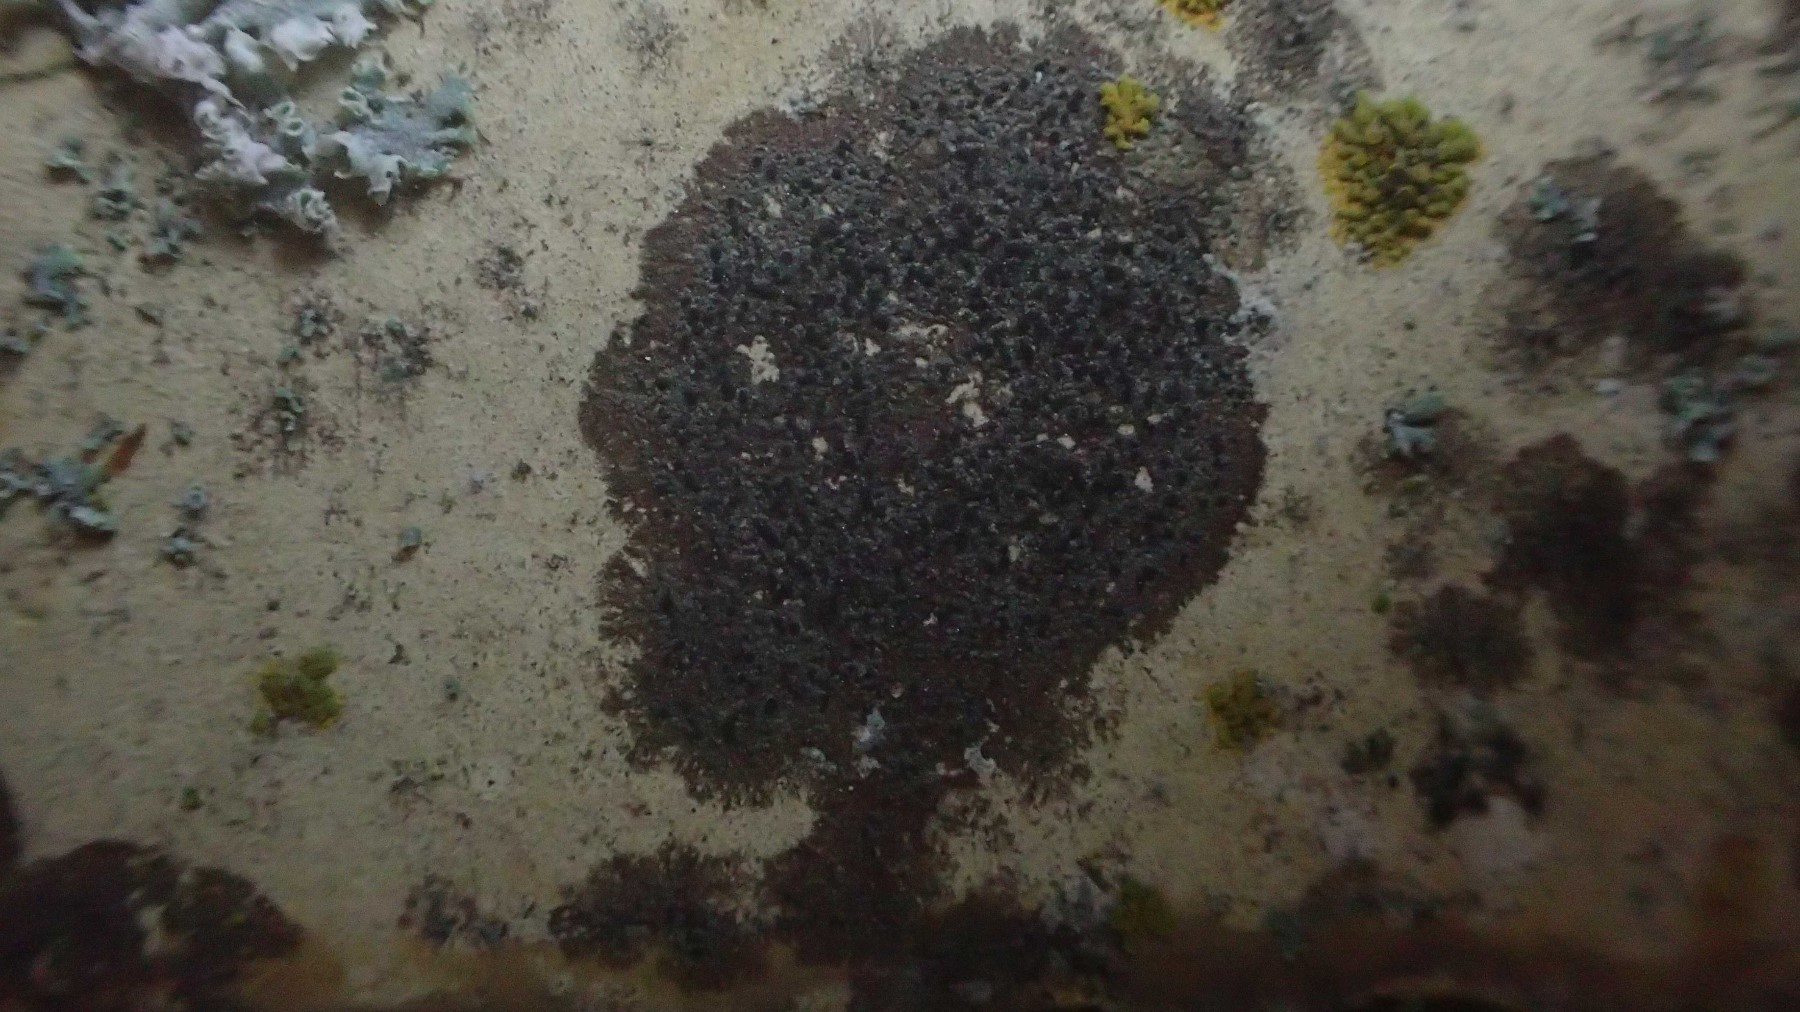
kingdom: Fungi
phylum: Ascomycota
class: Lecanoromycetes
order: Lecanorales
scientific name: Lecanorales
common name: skivelavordenen
